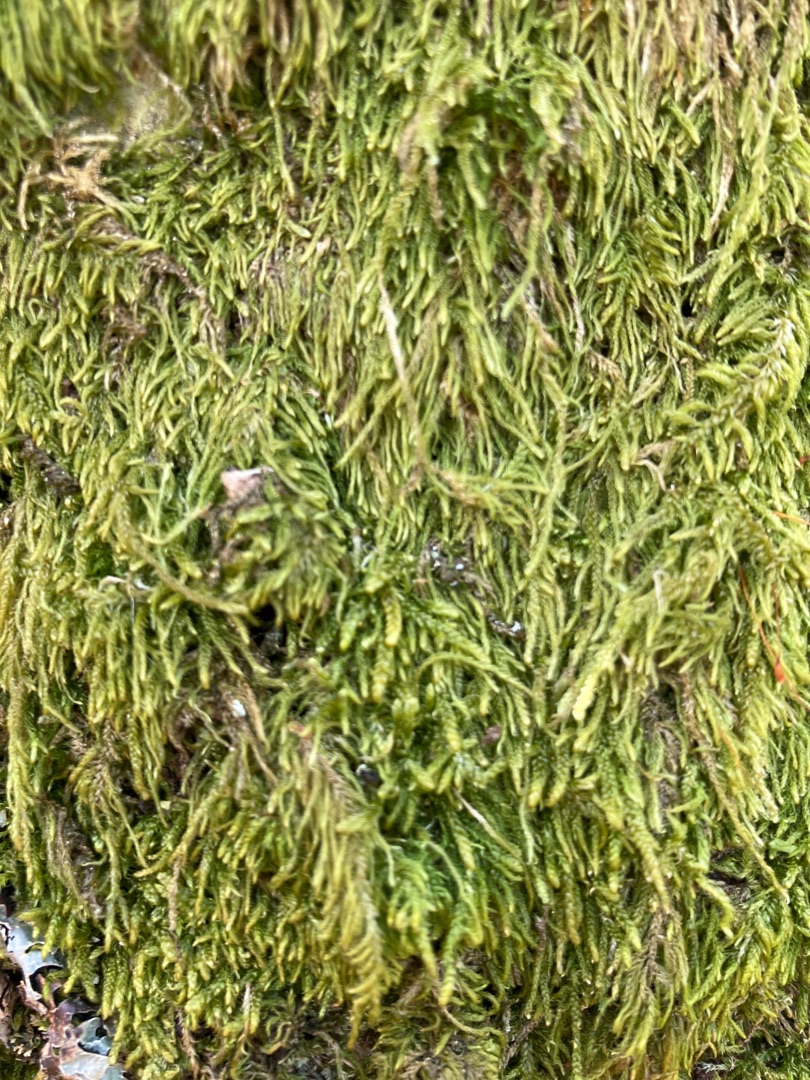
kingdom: Plantae
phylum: Bryophyta
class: Bryopsida
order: Hypnales
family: Hypnaceae
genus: Hypnum
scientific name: Hypnum
